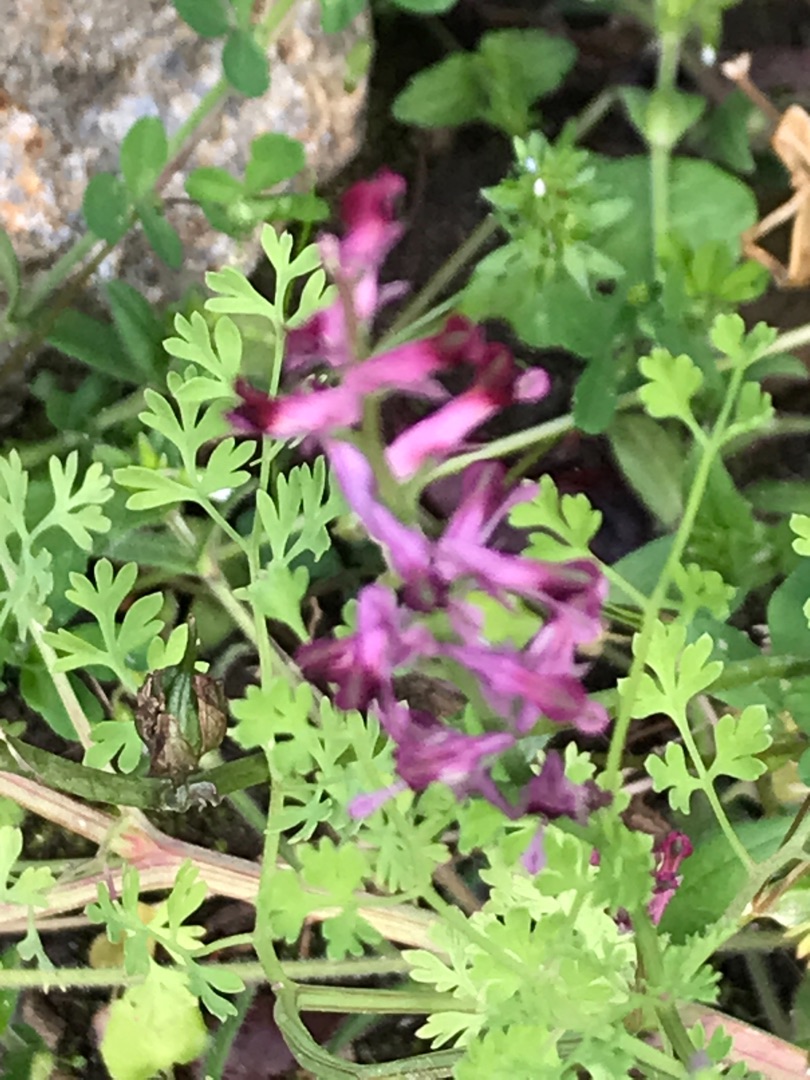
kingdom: Plantae
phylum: Tracheophyta
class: Magnoliopsida
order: Ranunculales
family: Papaveraceae
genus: Fumaria
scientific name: Fumaria officinalis
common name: Læge-jordrøg
